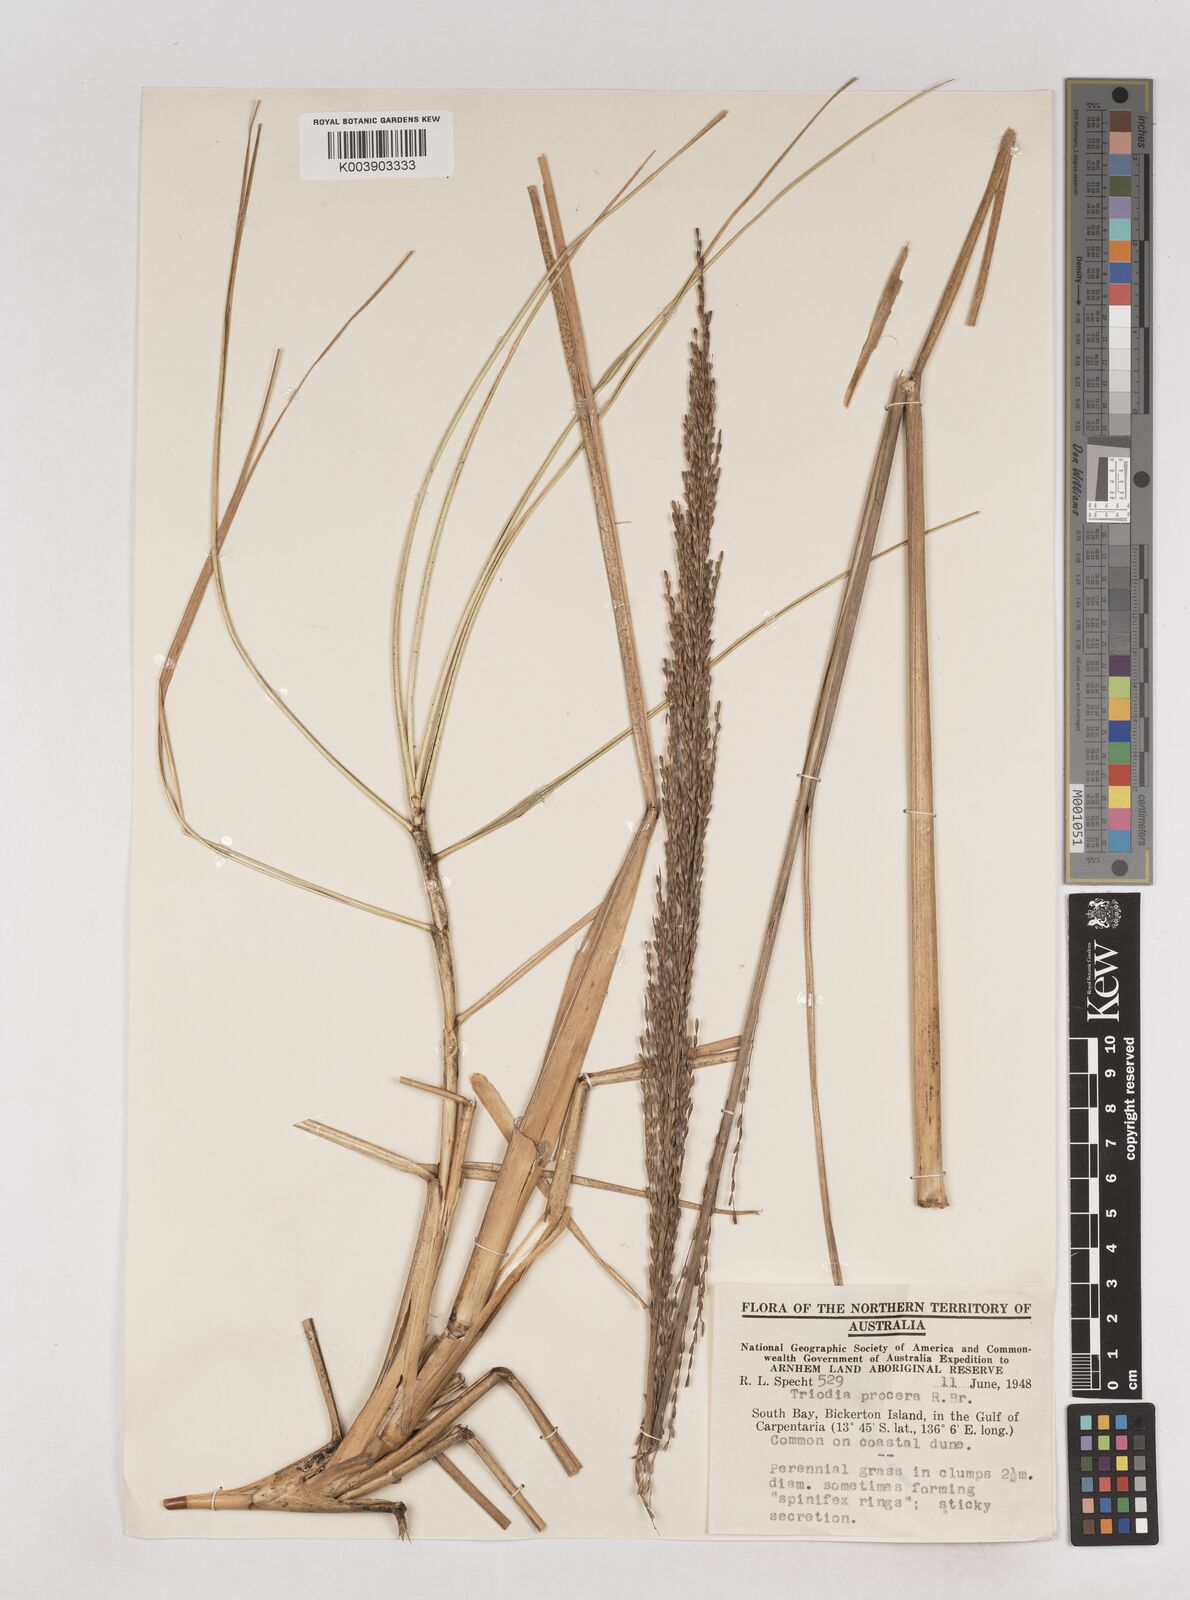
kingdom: Plantae
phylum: Tracheophyta
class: Liliopsida
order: Poales
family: Poaceae
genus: Triodia
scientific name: Triodia procera
